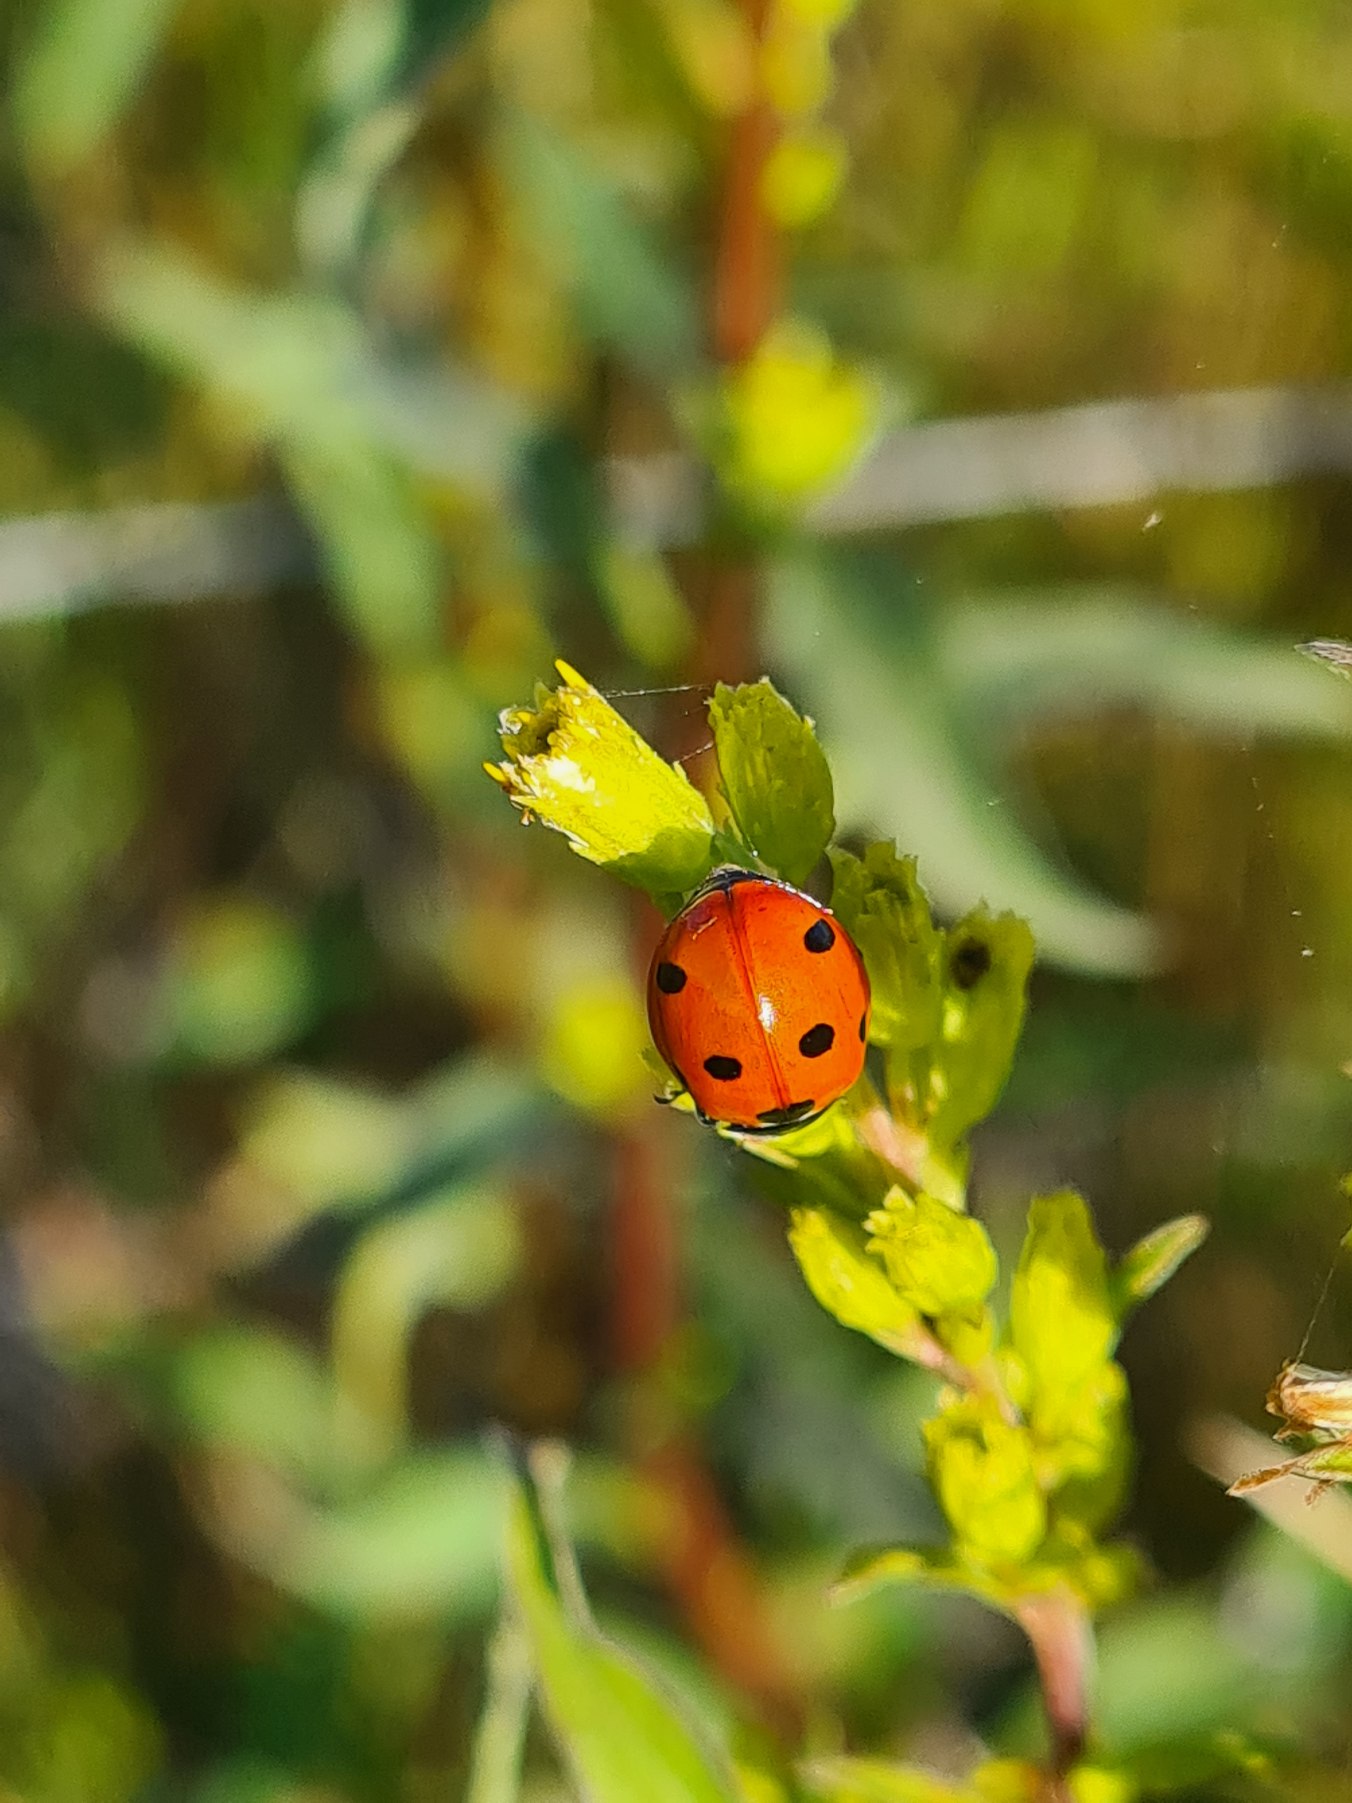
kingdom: Animalia
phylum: Arthropoda
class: Insecta
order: Coleoptera
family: Coccinellidae
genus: Coccinella
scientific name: Coccinella septempunctata
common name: Syvplettet mariehøne
